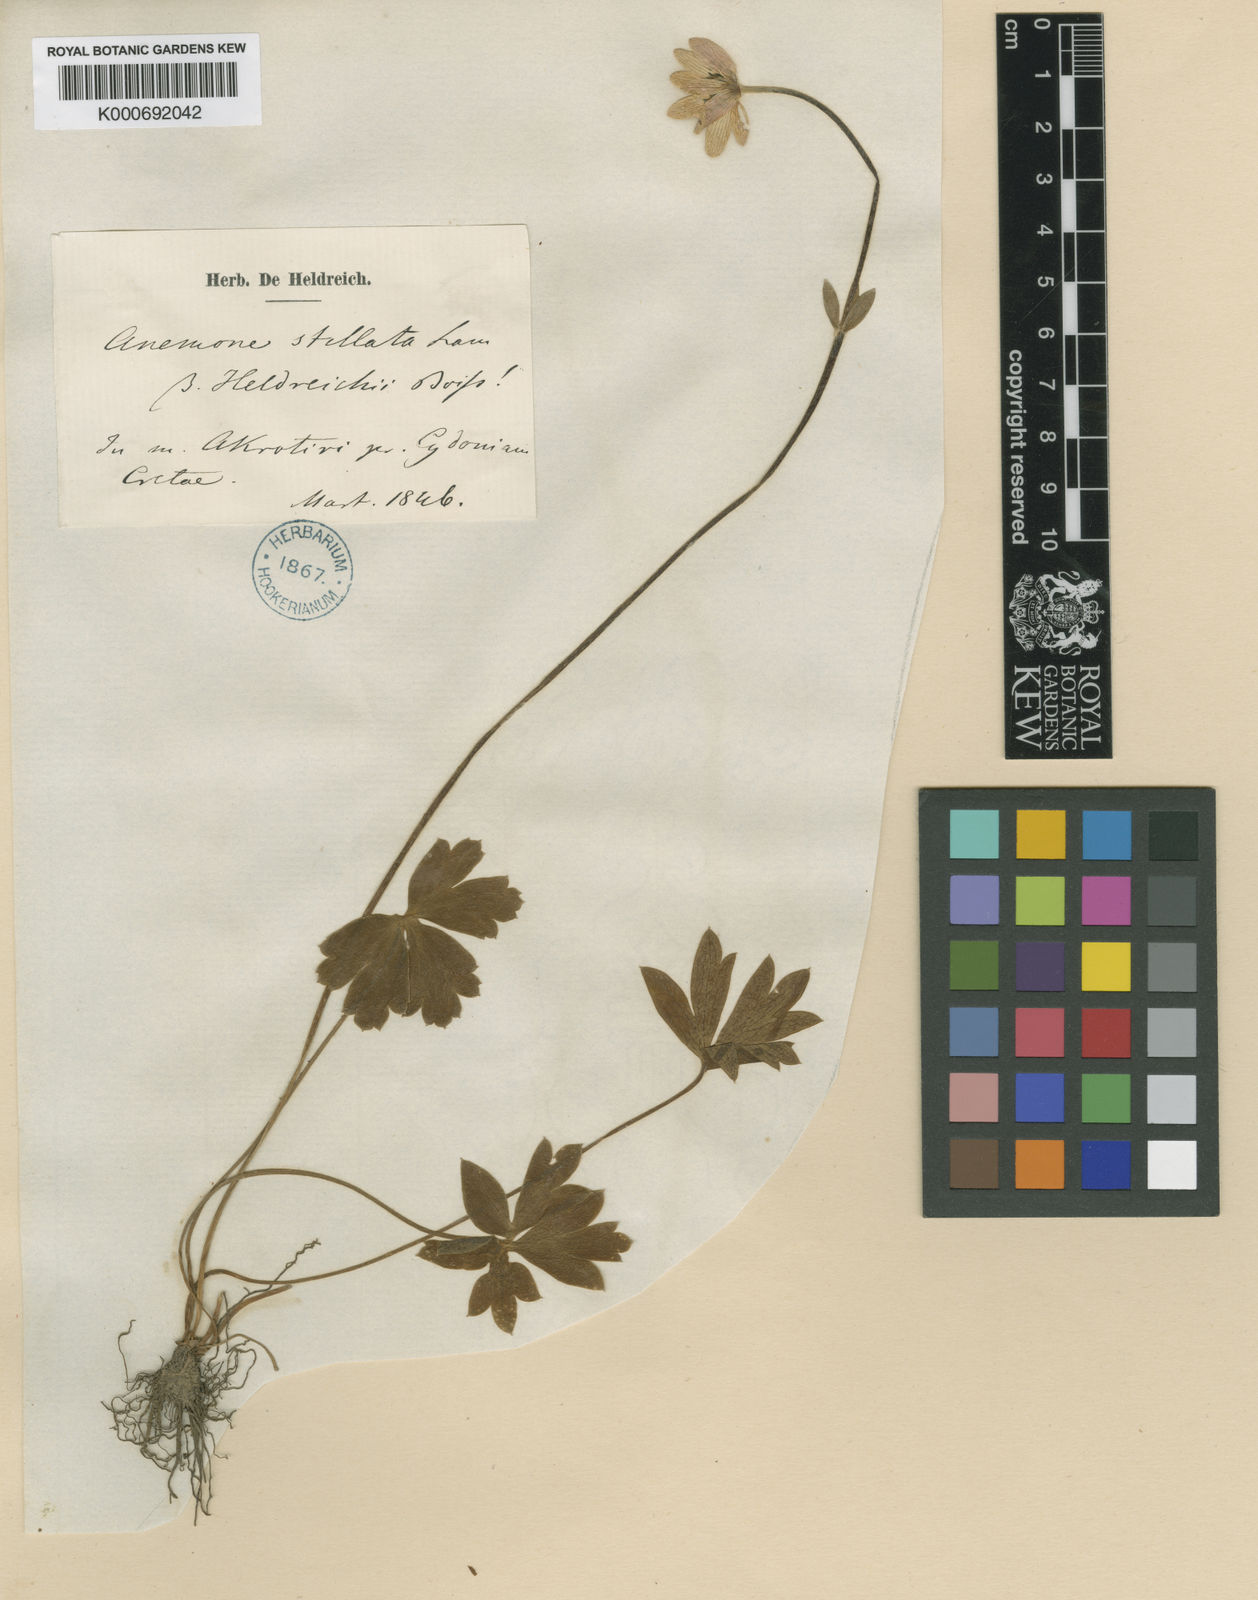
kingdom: Plantae
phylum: Tracheophyta
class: Magnoliopsida
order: Ranunculales
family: Ranunculaceae
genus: Anemone
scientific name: Anemone
